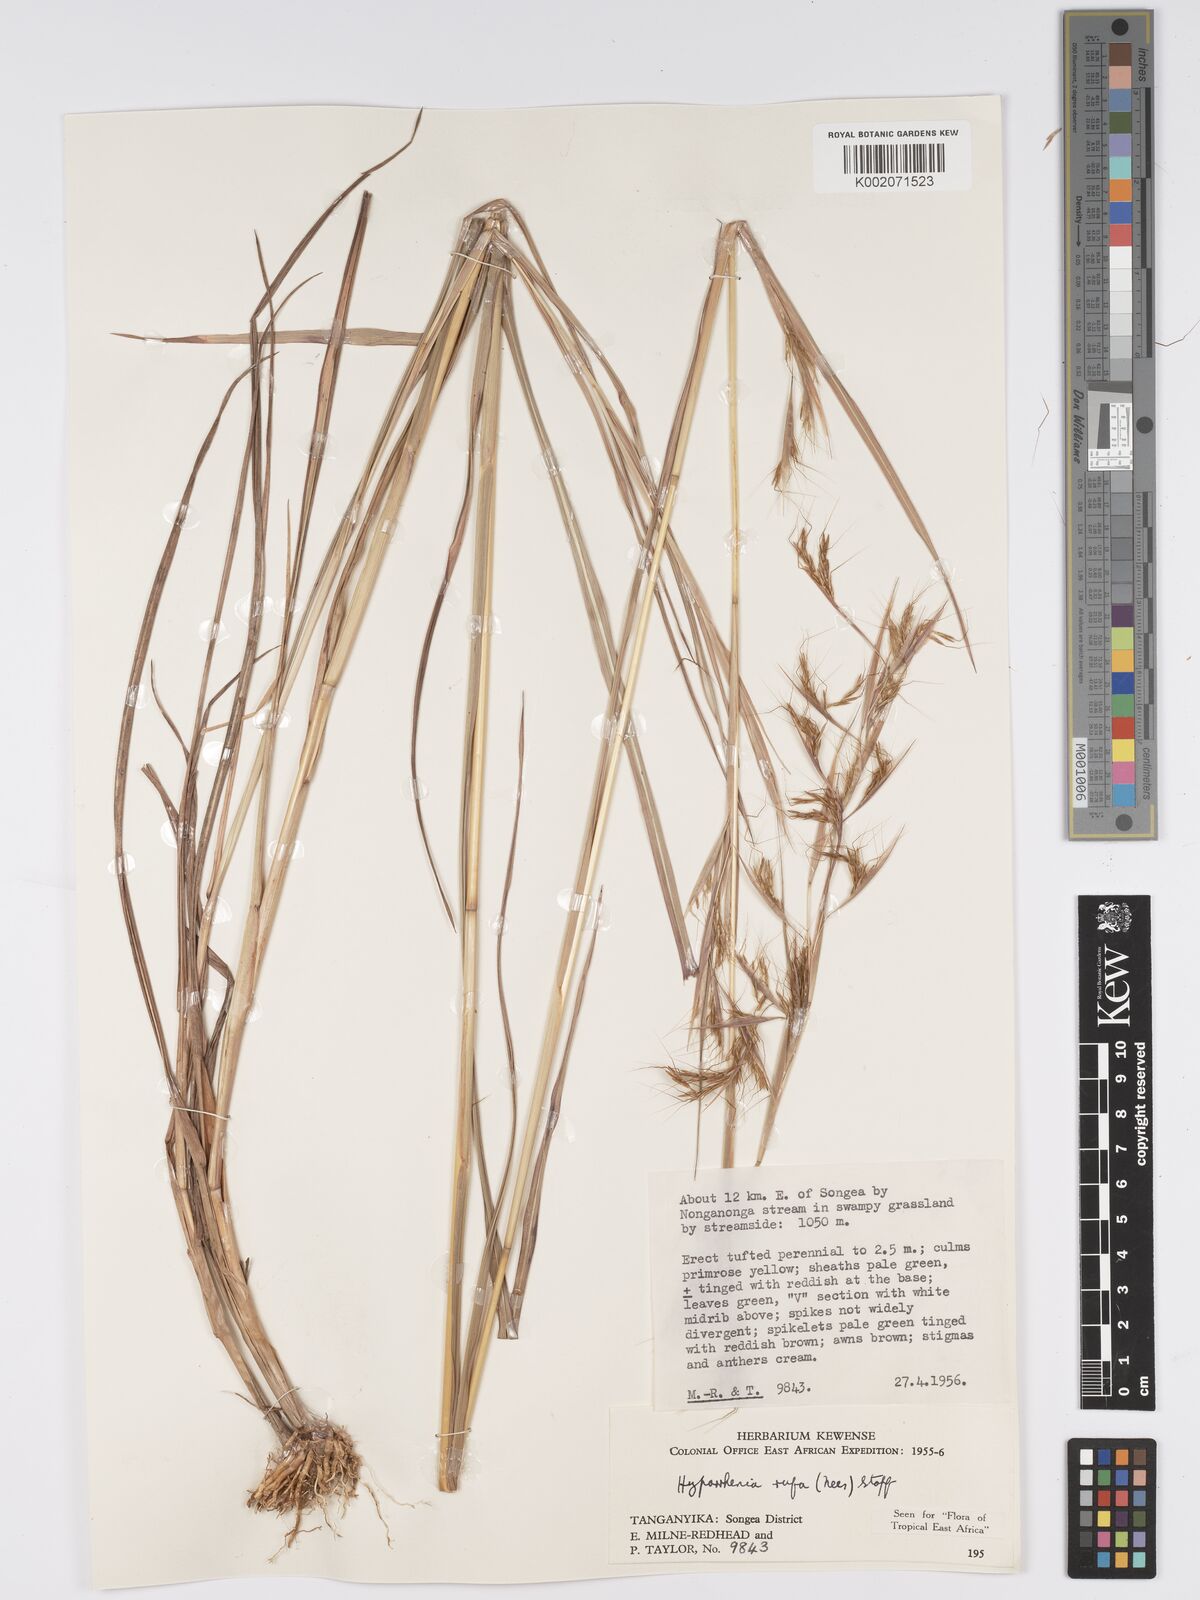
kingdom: Plantae
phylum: Tracheophyta
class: Liliopsida
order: Poales
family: Poaceae
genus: Hyparrhenia
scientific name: Hyparrhenia rufa
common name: Jaraguagrass
